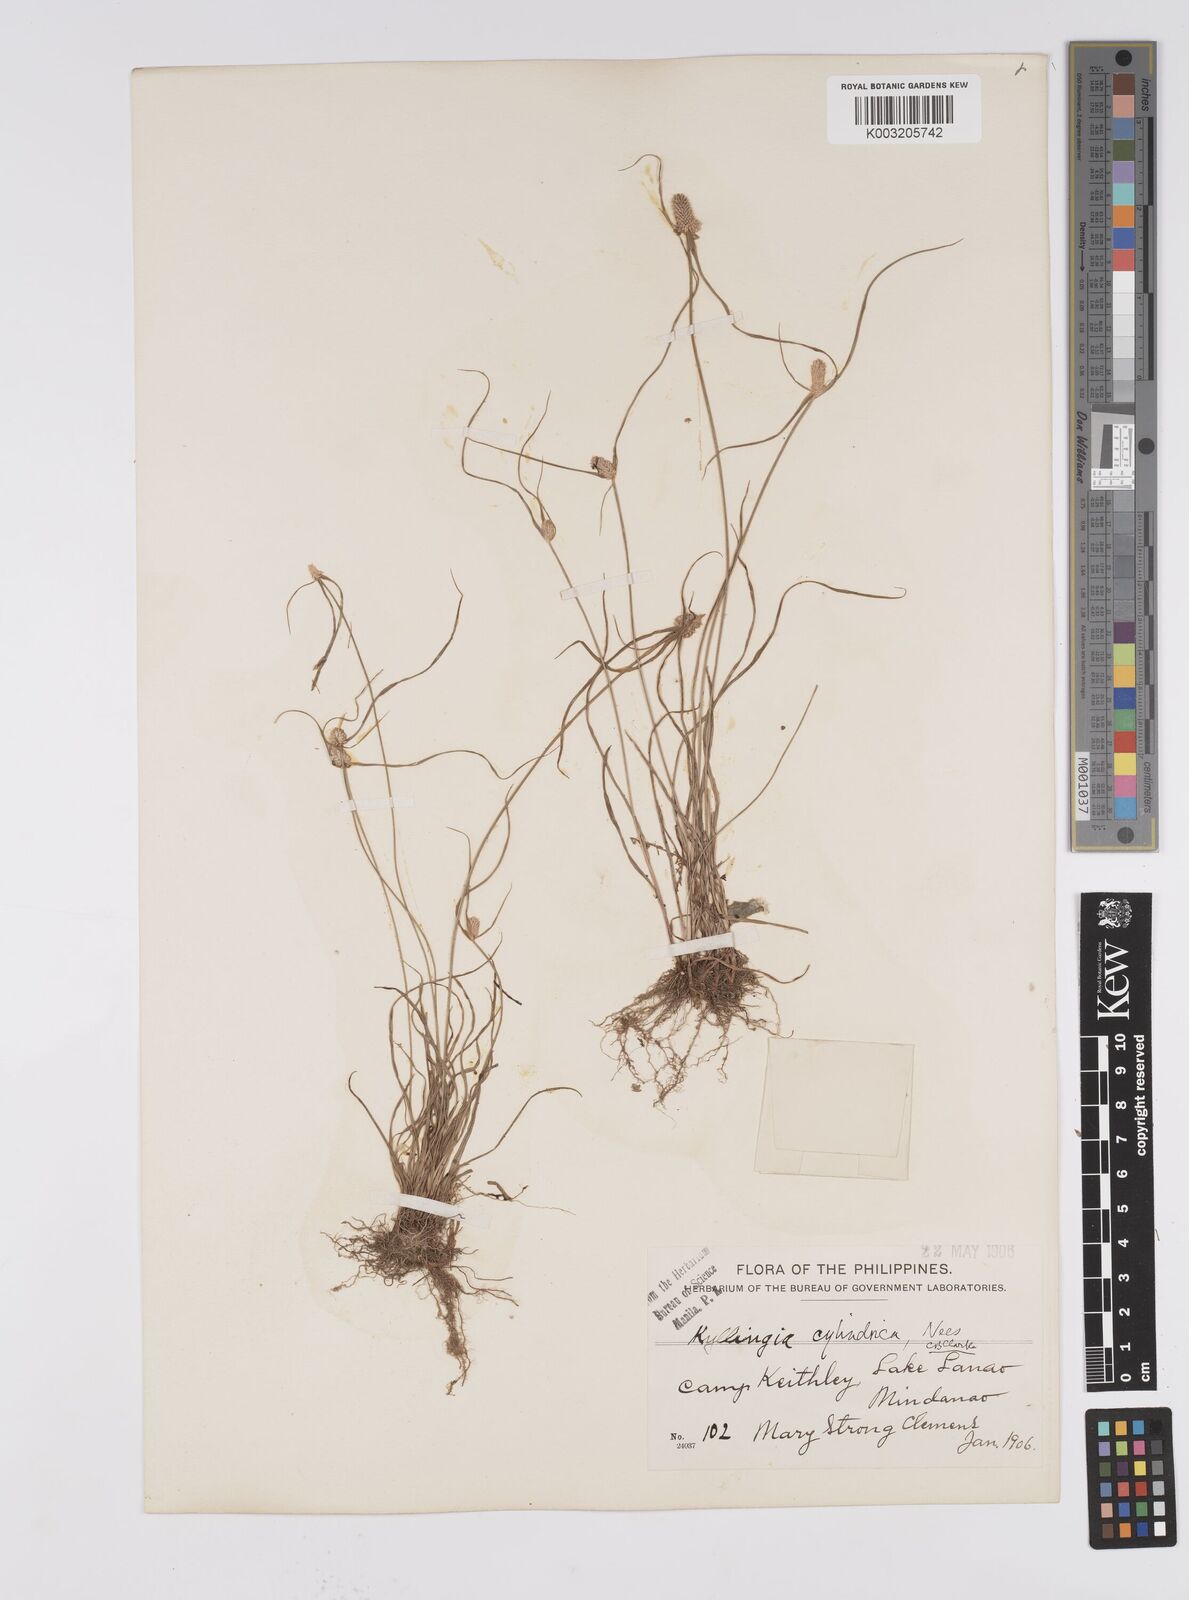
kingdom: Plantae
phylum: Tracheophyta
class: Liliopsida
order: Poales
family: Cyperaceae
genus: Cyperus
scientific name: Cyperus
